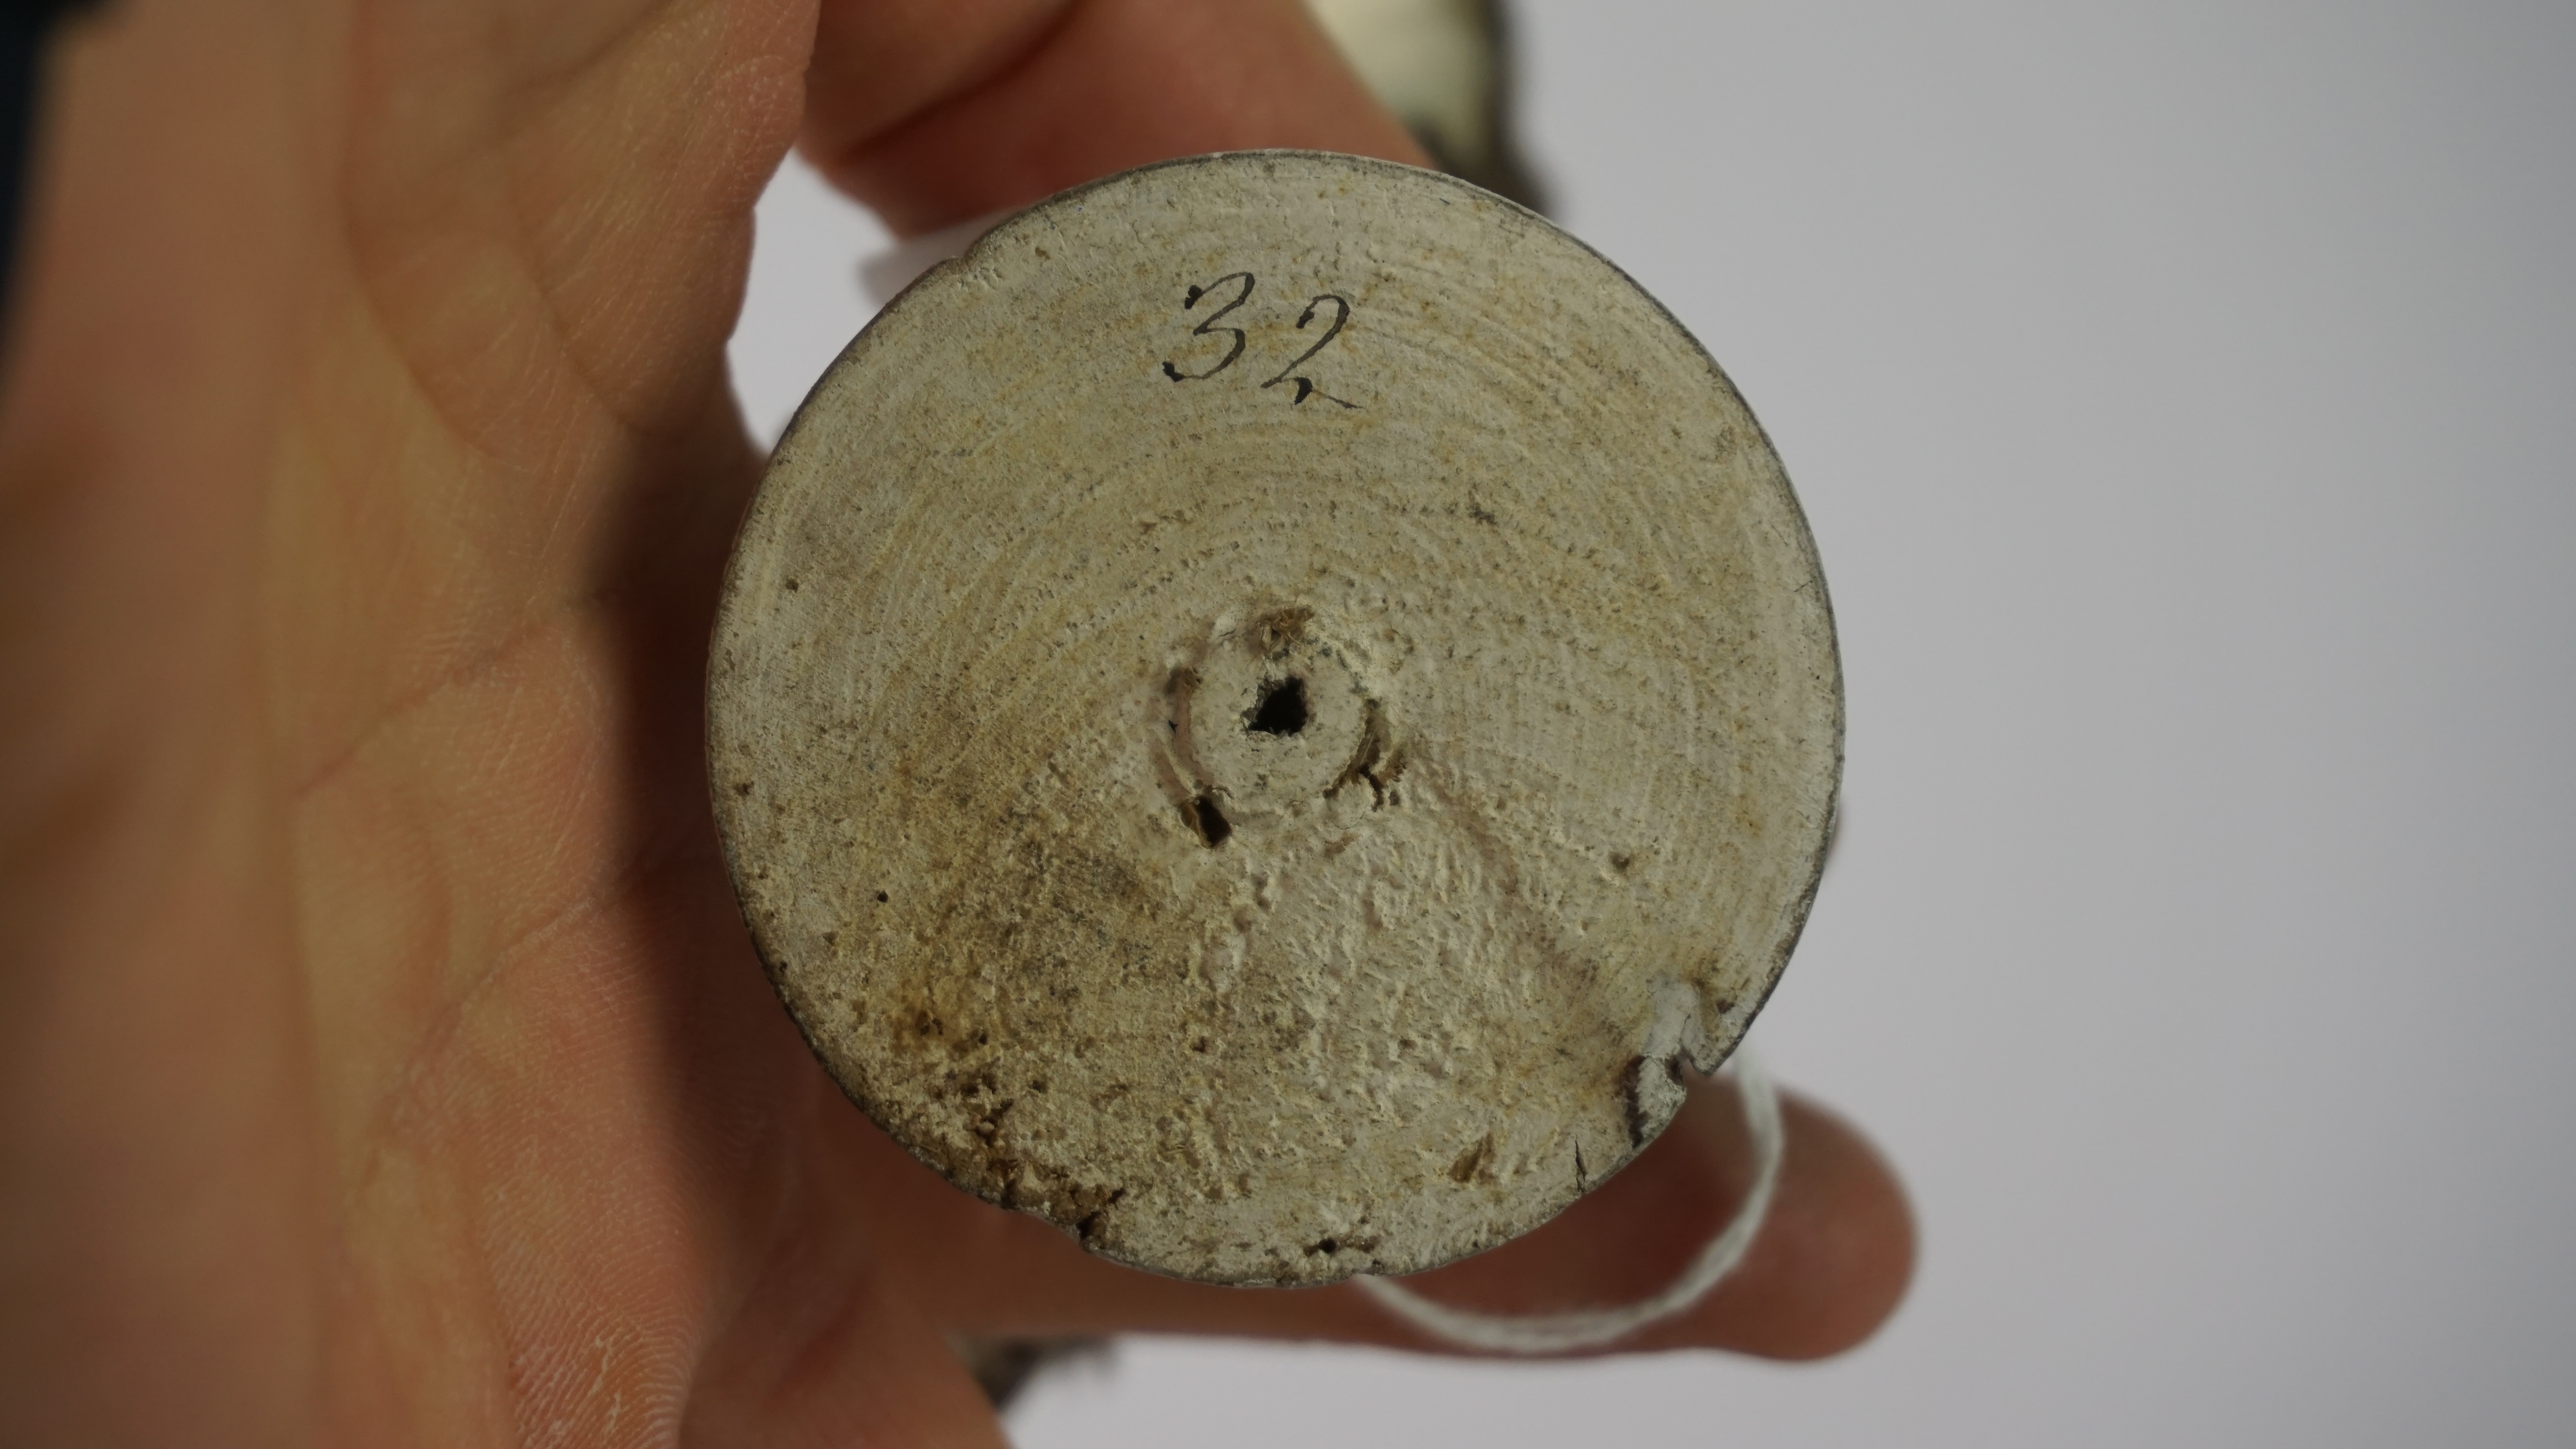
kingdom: Animalia
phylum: Chordata
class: Aves
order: Passeriformes
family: Climacteridae
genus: Cormobates
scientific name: Cormobates leucophaea
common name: White-throated treecreeper
